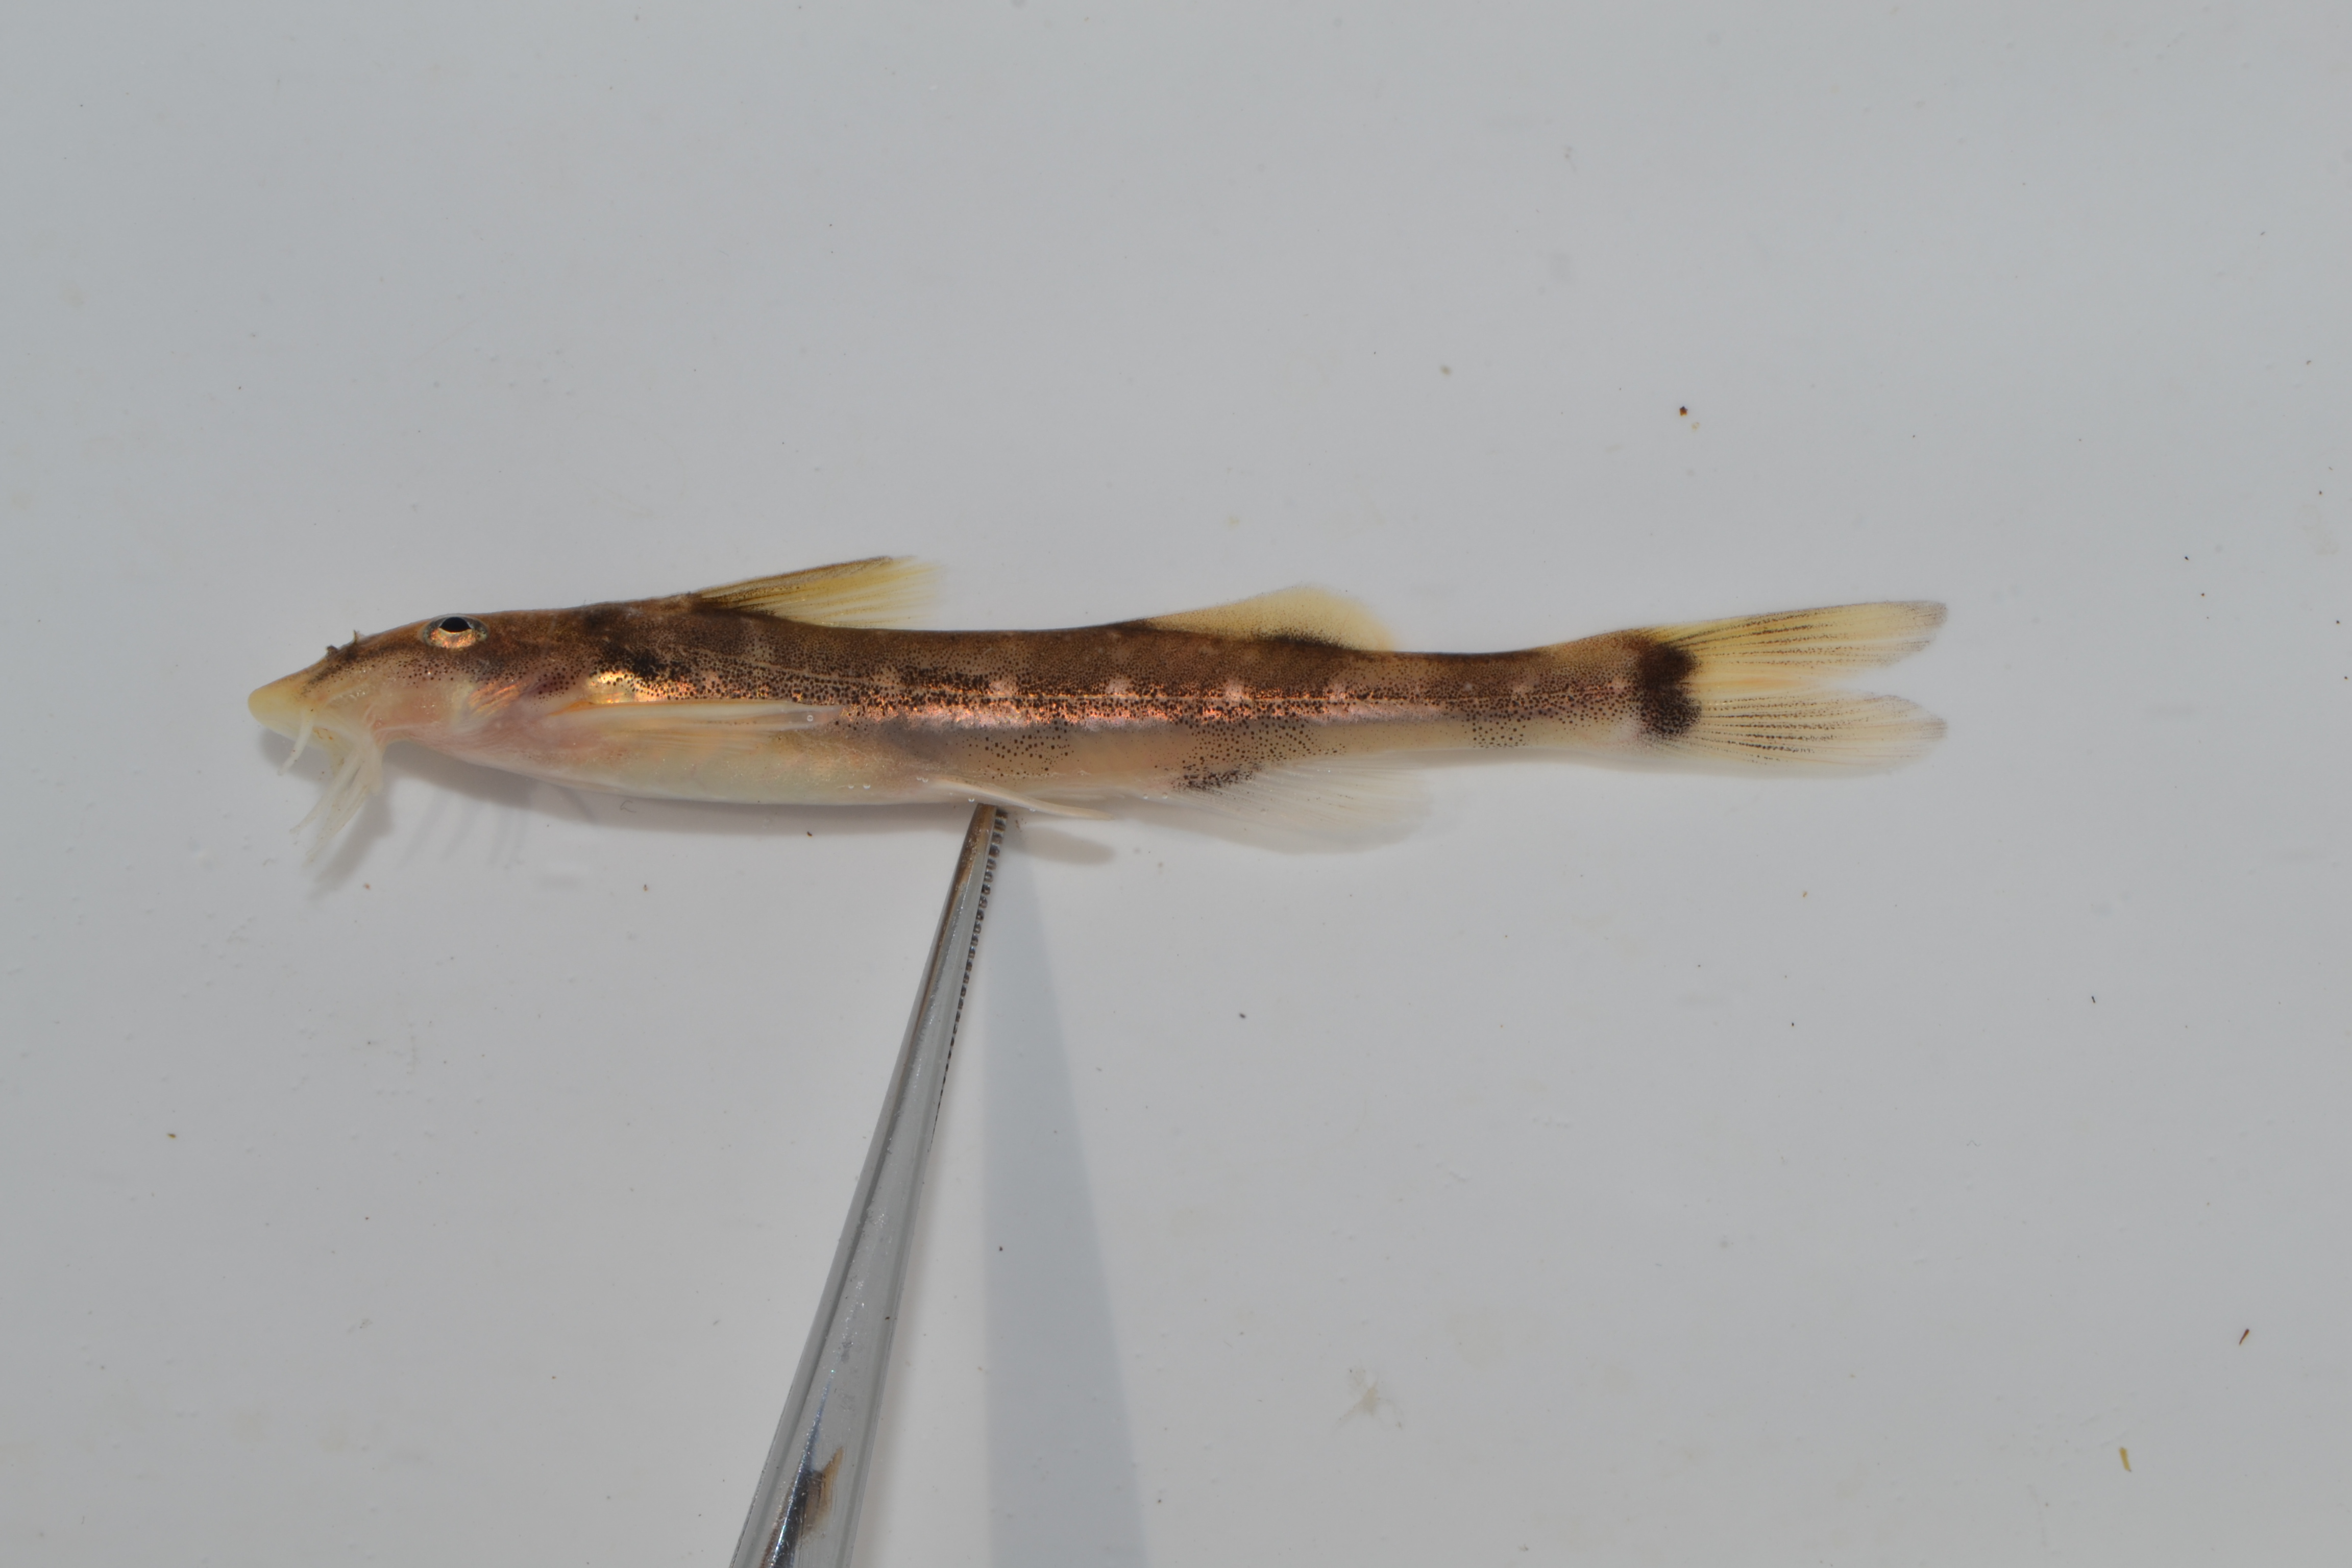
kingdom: Animalia
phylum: Chordata
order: Siluriformes
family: Mochokidae
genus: Chiloglanis
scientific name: Chiloglanis swierstrai
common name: Lowveld suckermouth
